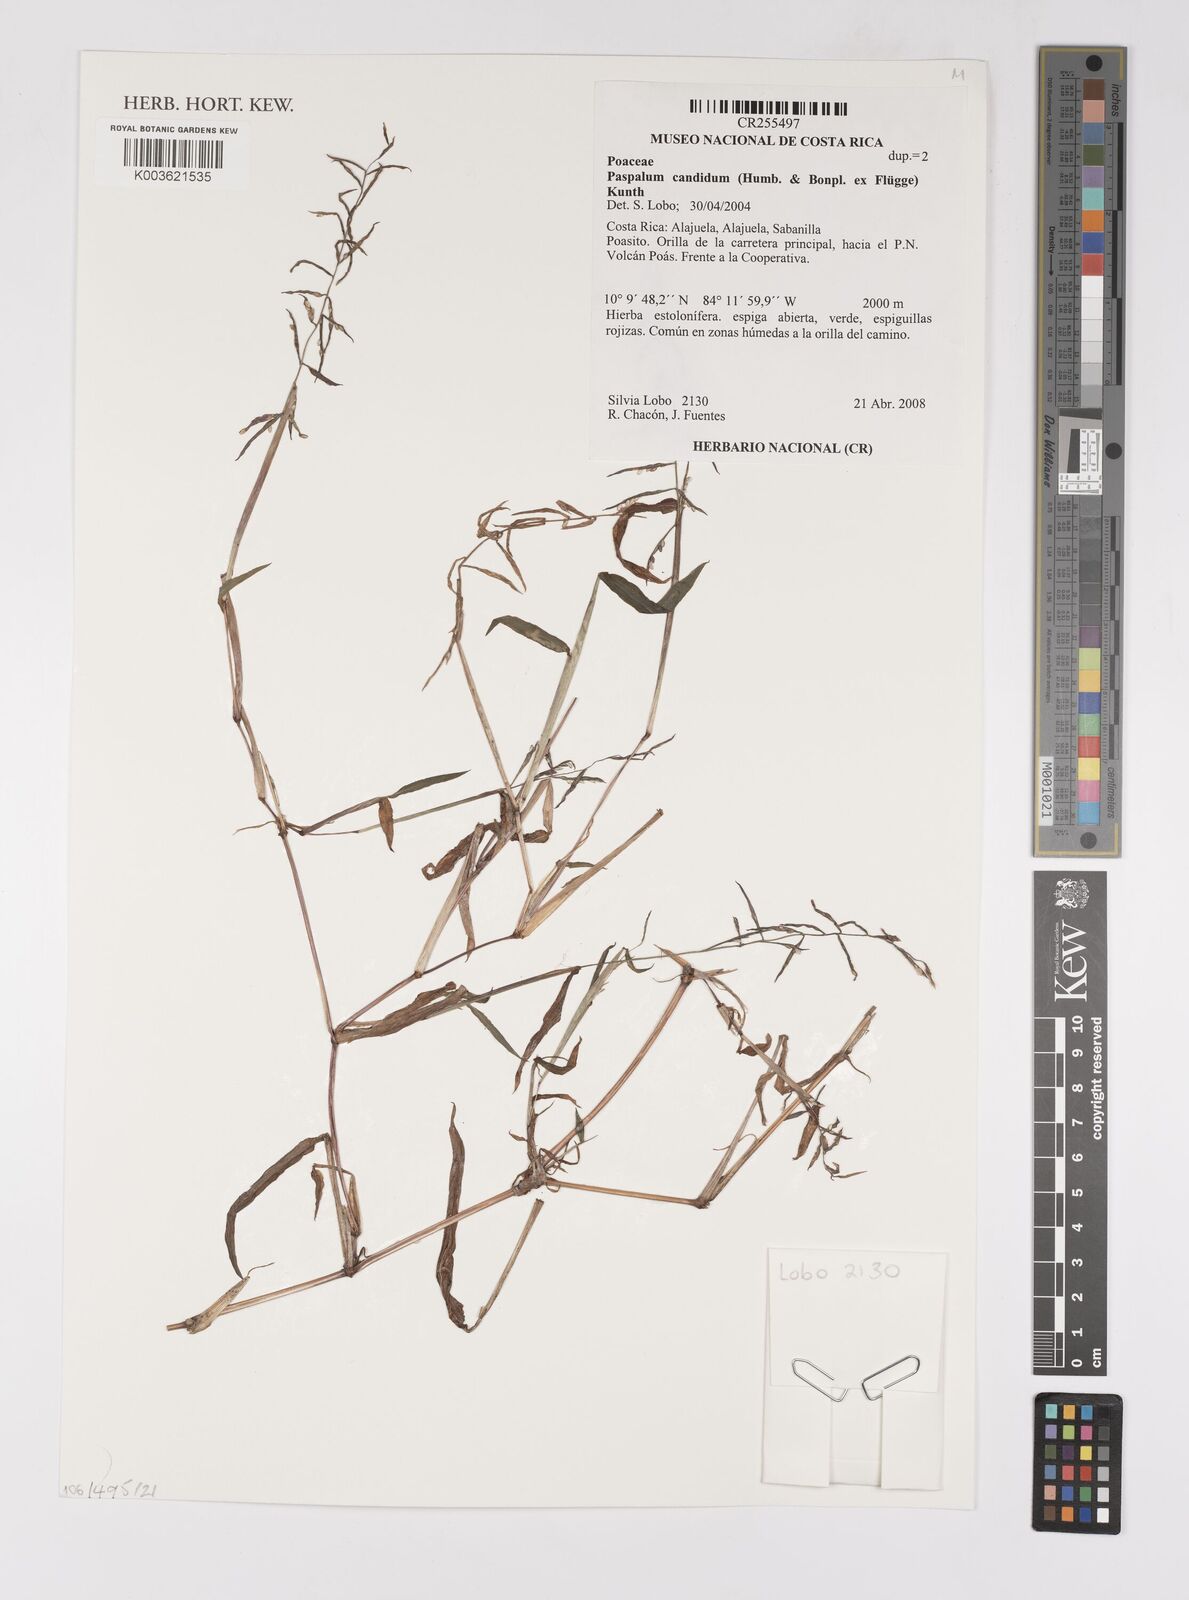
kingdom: Plantae
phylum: Tracheophyta
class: Liliopsida
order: Poales
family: Poaceae
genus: Paspalum
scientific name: Paspalum candidum
